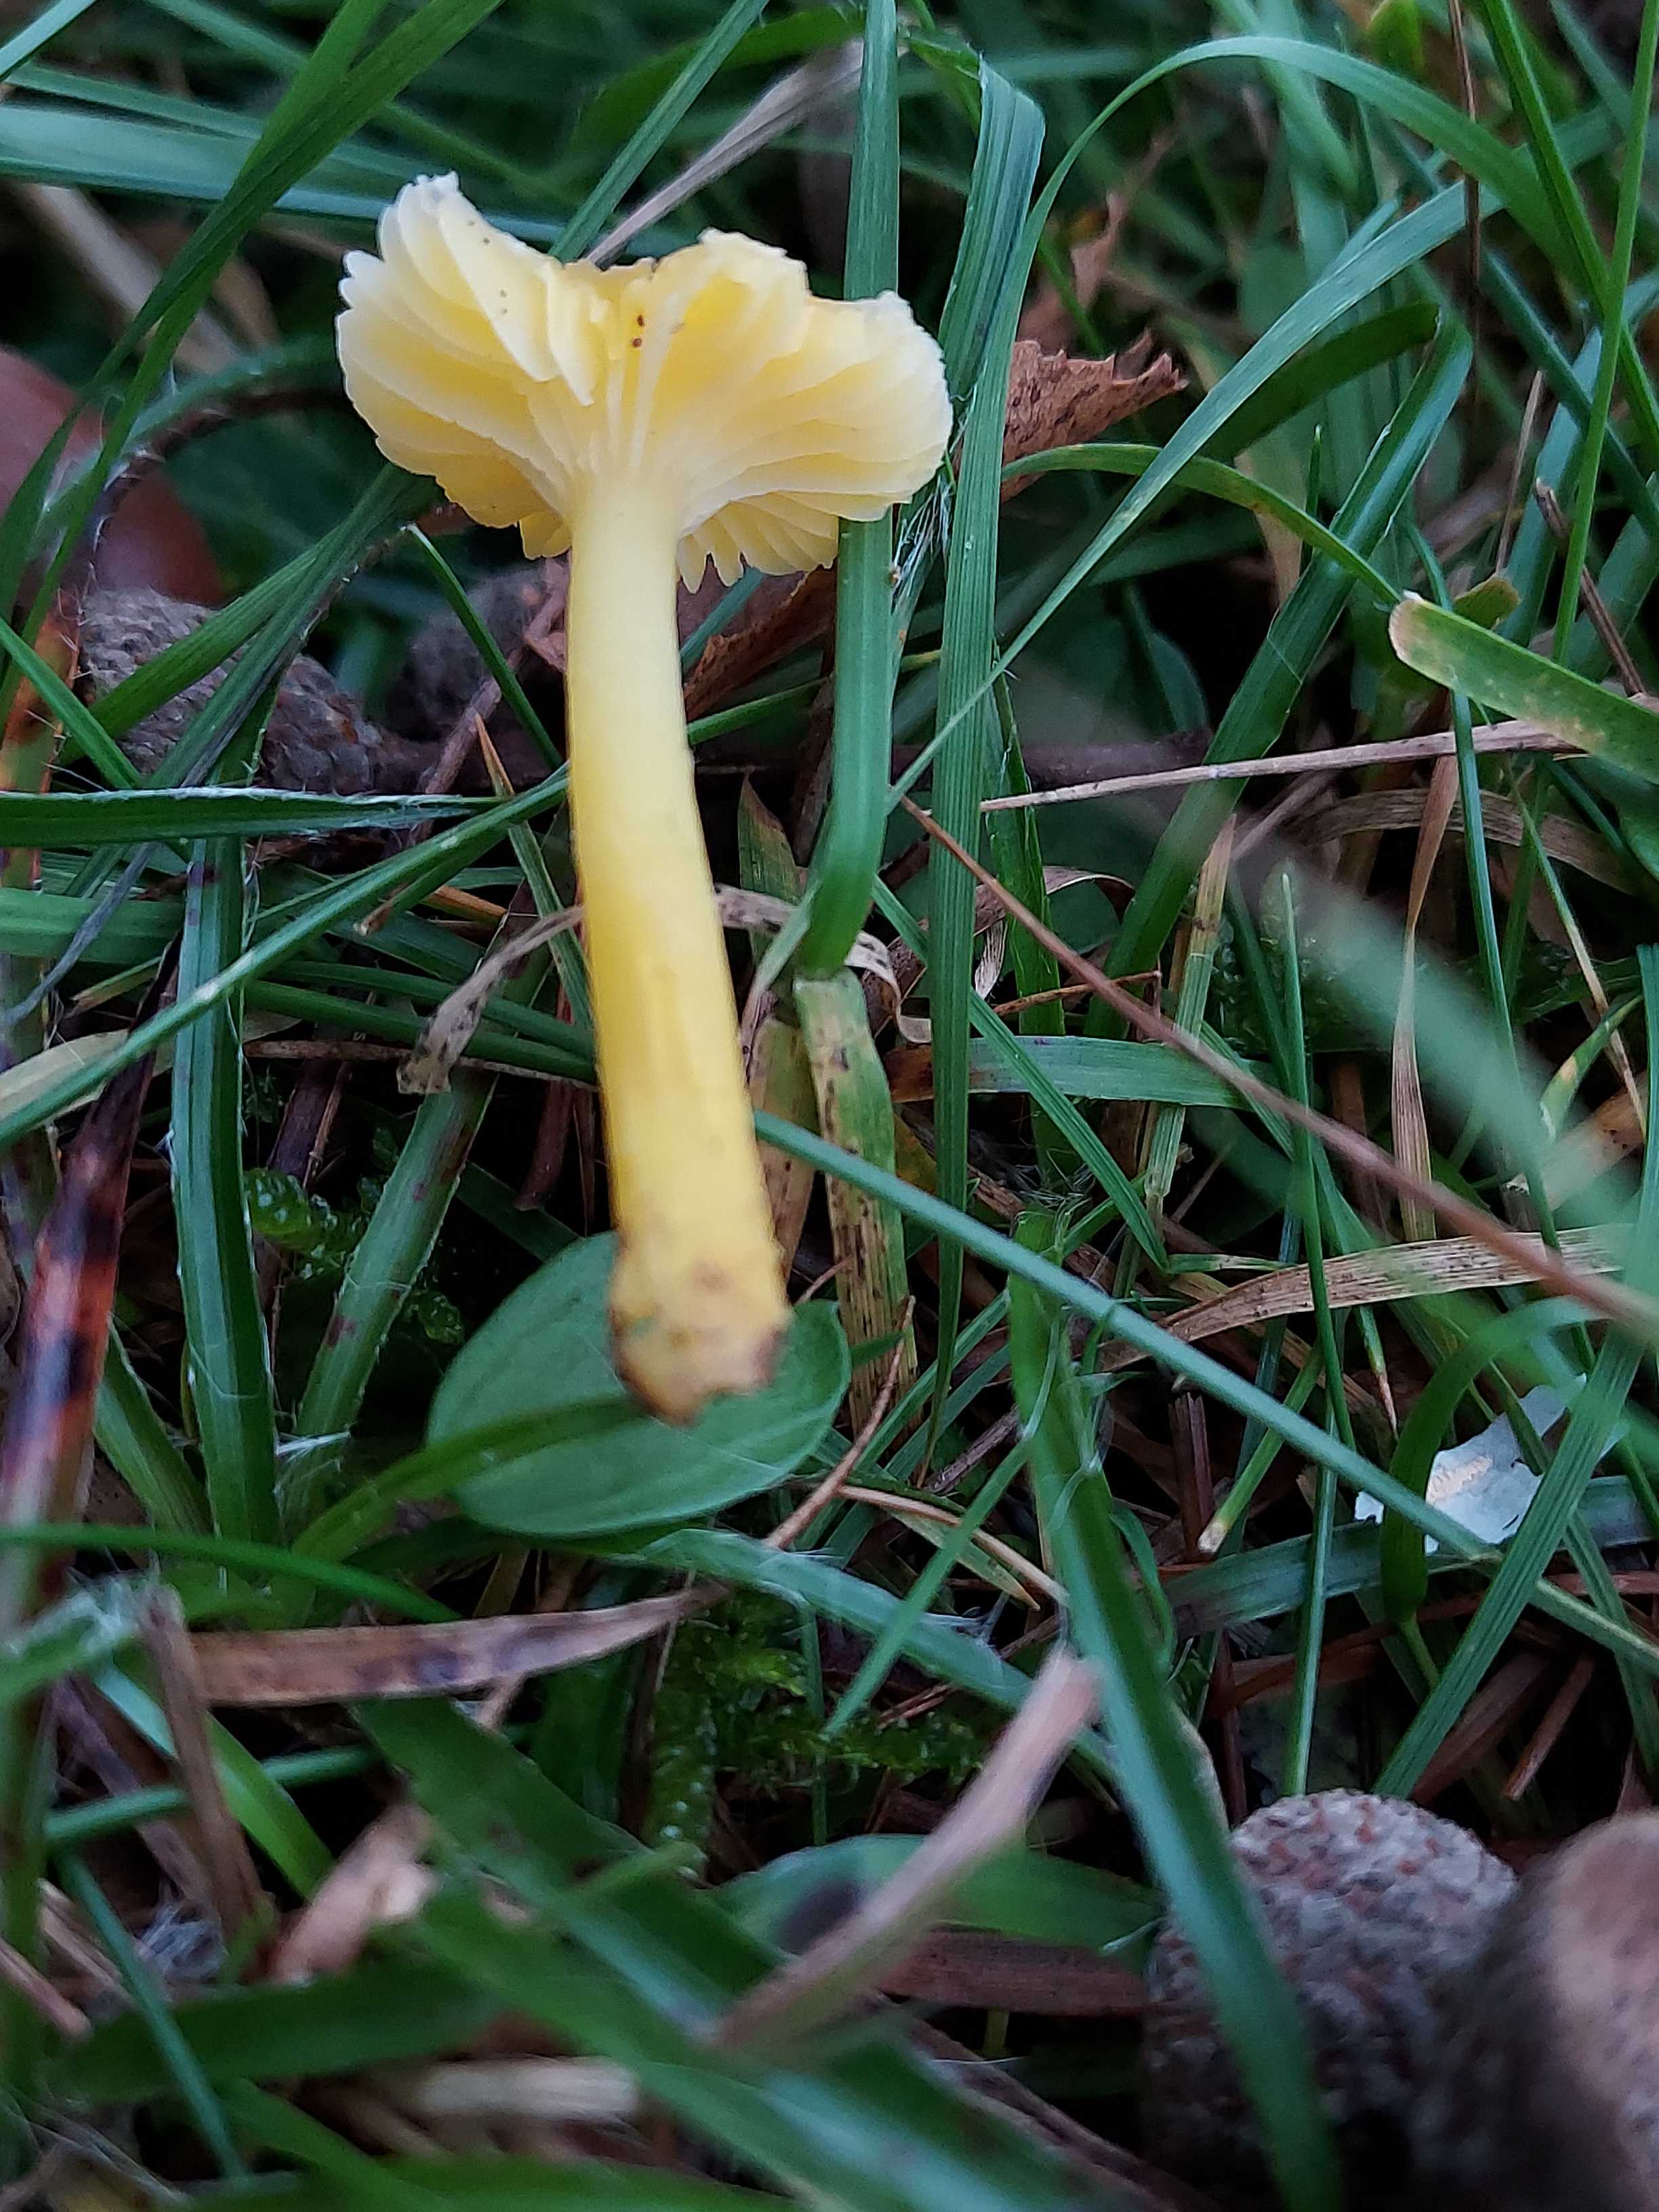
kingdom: Fungi
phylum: Basidiomycota
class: Agaricomycetes
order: Agaricales
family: Hygrophoraceae
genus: Hygrocybe
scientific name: Hygrocybe ceracea
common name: voksgul vokshat
